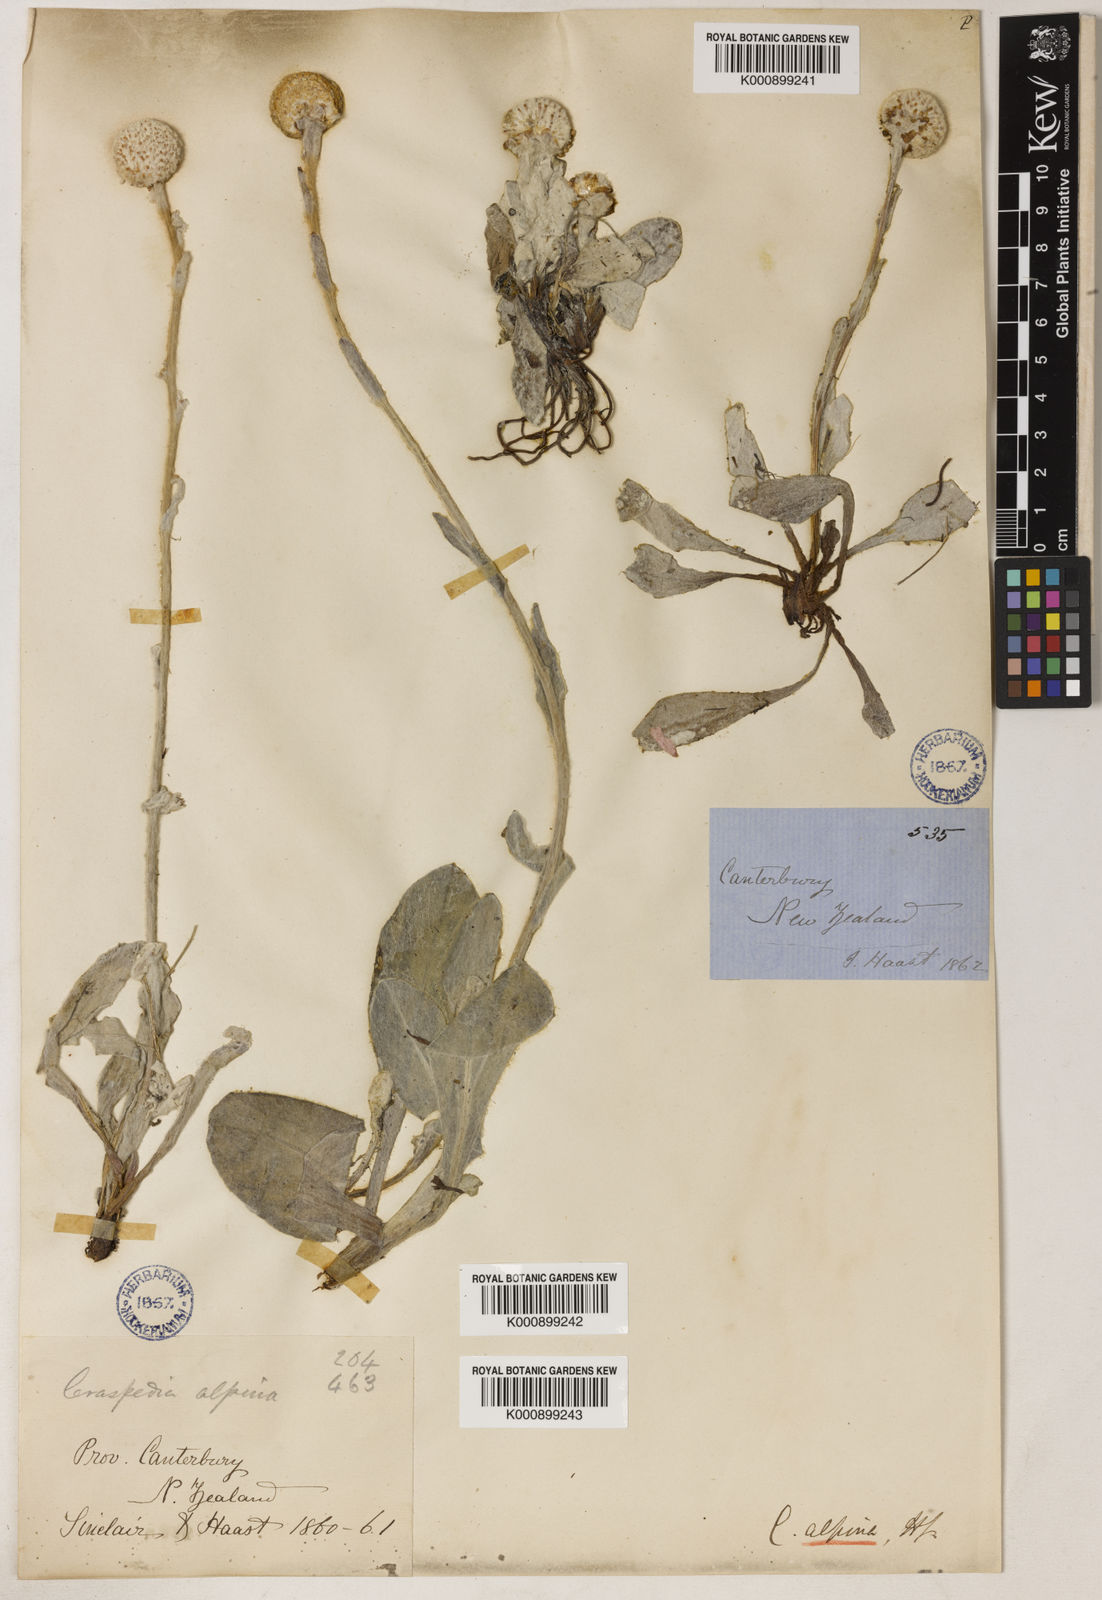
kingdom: Plantae
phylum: Tracheophyta
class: Magnoliopsida
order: Asterales
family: Asteraceae
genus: Craspedia
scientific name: Craspedia uniflora
